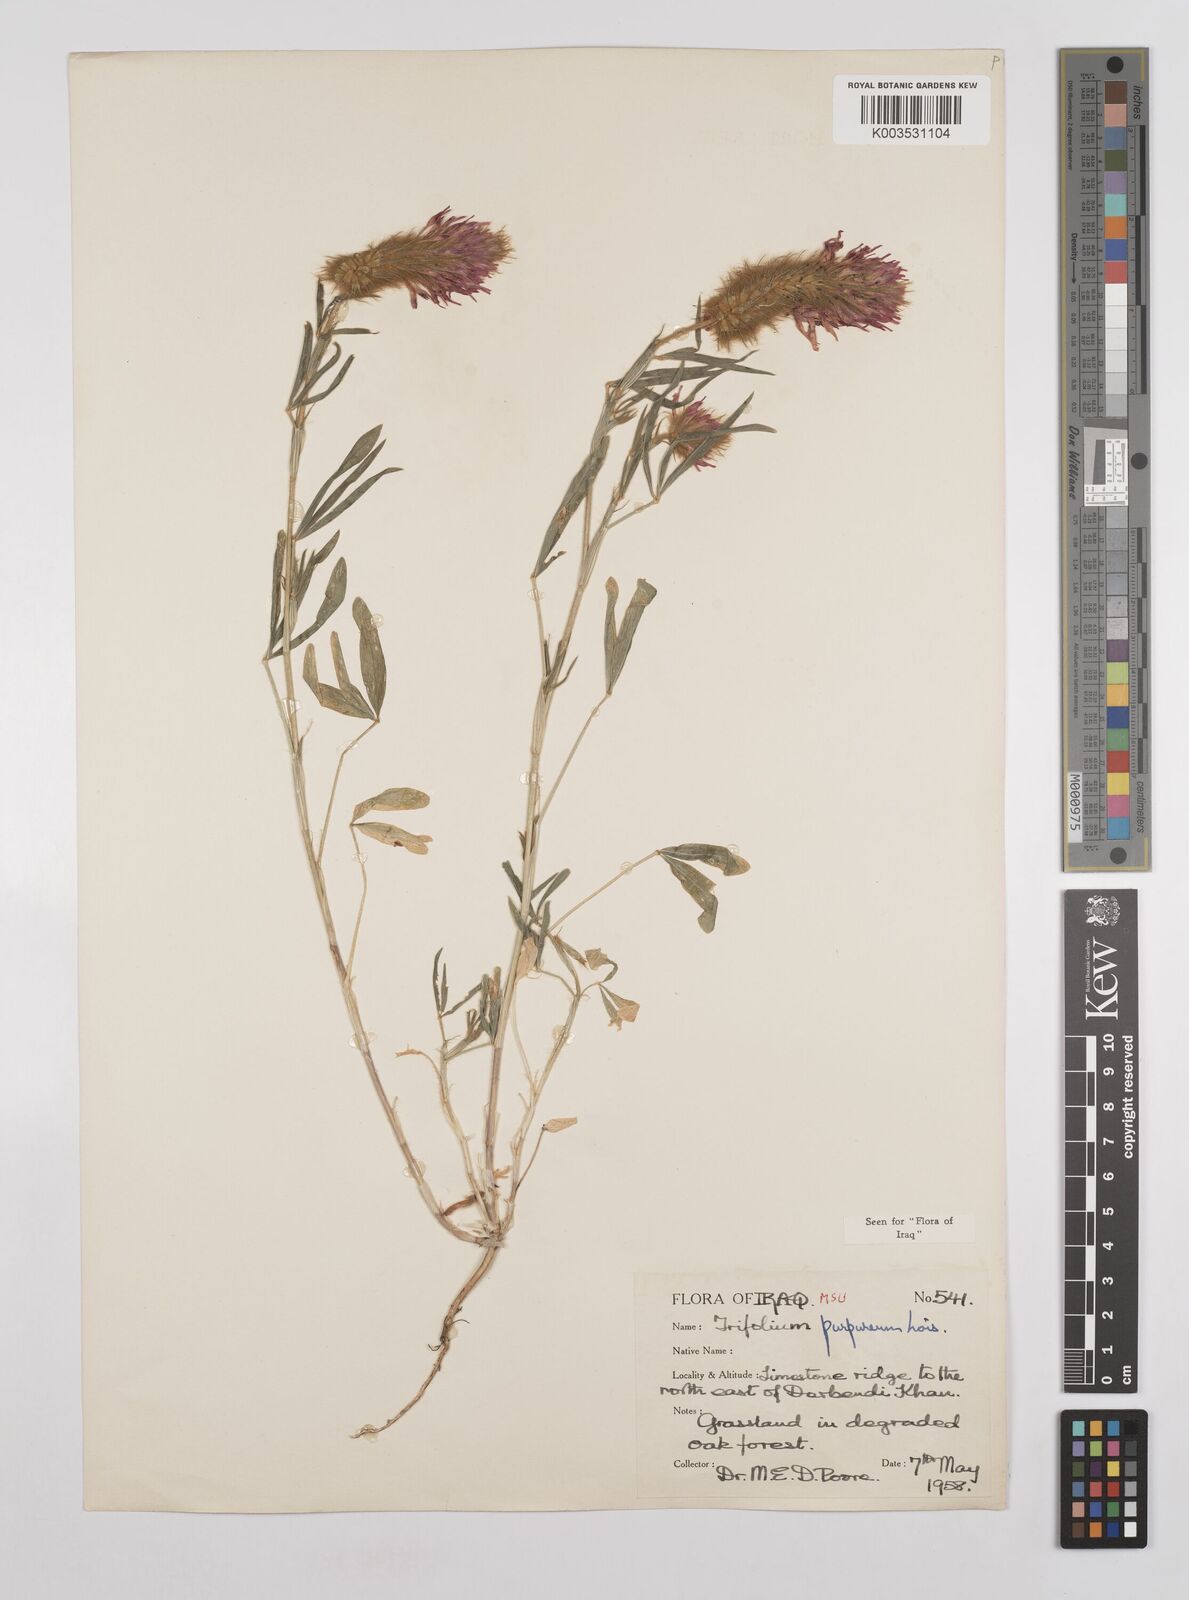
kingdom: Plantae
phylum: Tracheophyta
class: Magnoliopsida
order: Fabales
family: Fabaceae
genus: Trifolium
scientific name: Trifolium purpureum
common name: Purple clover
